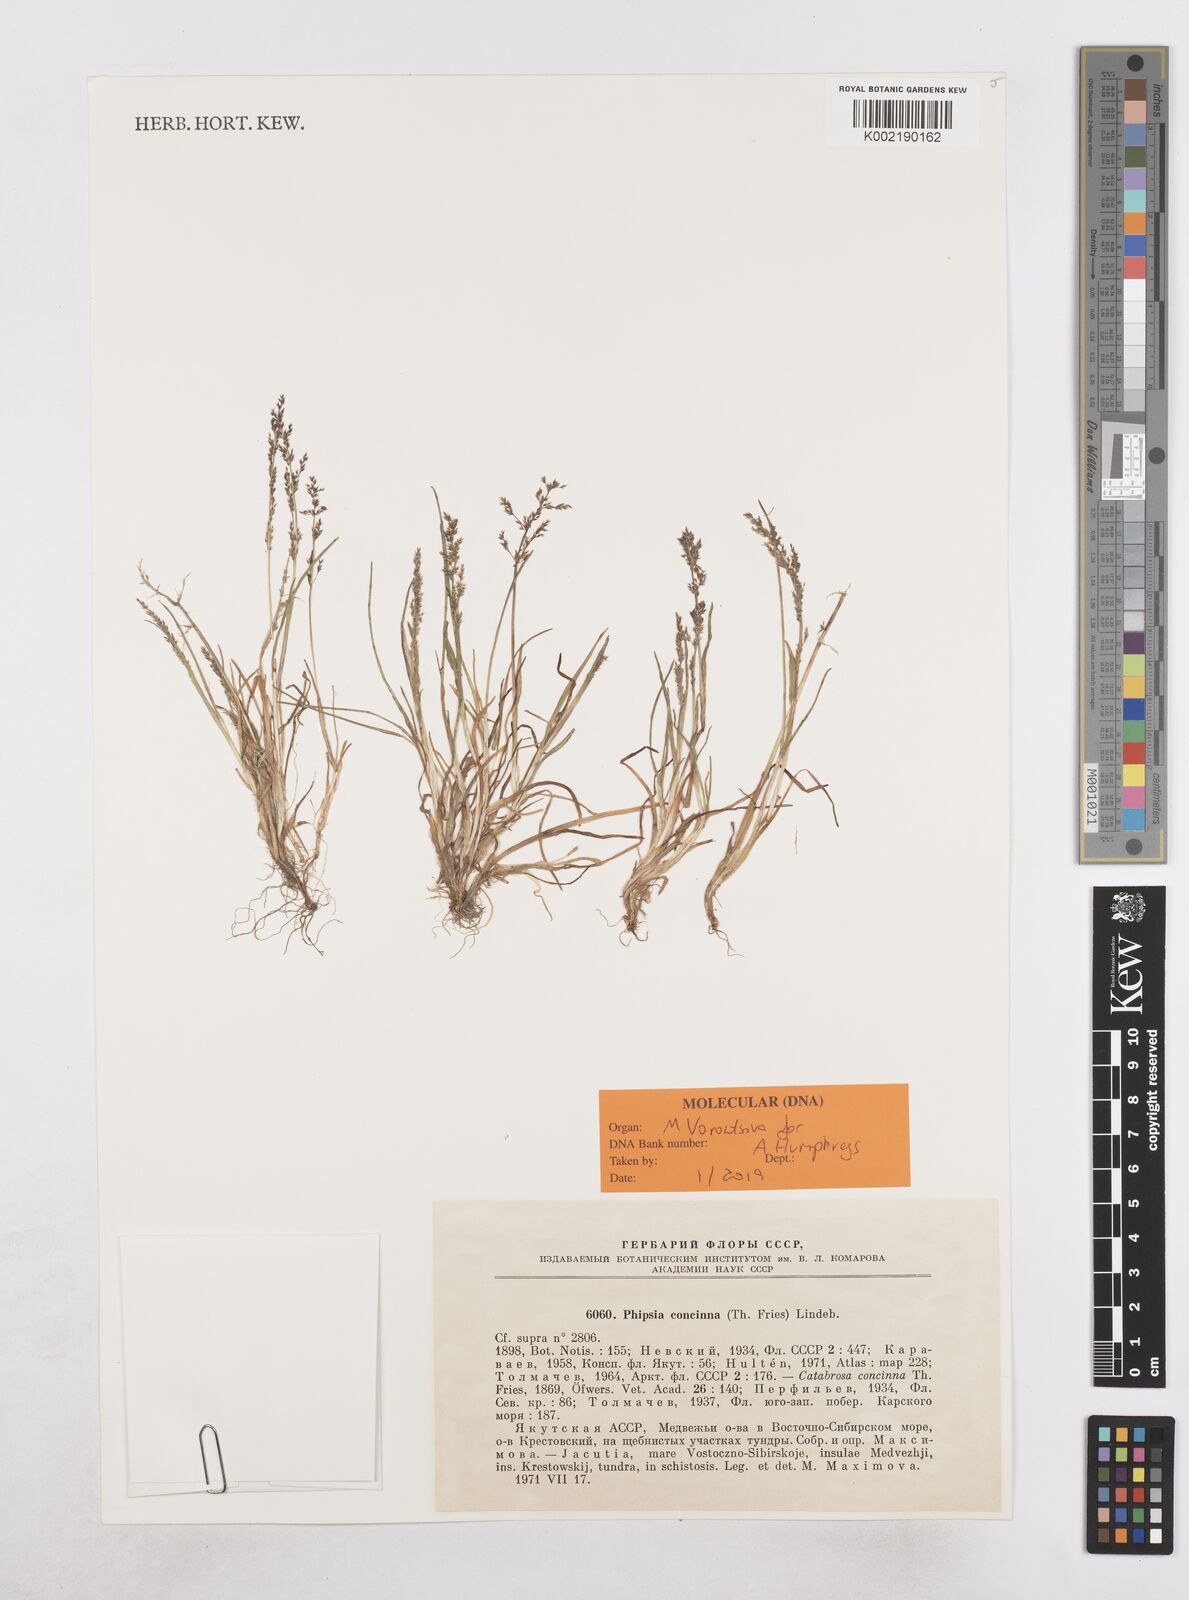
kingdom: Plantae
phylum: Tracheophyta
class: Liliopsida
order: Poales
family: Poaceae
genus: Phippsia
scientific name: Phippsia concinna
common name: Snowgrass
